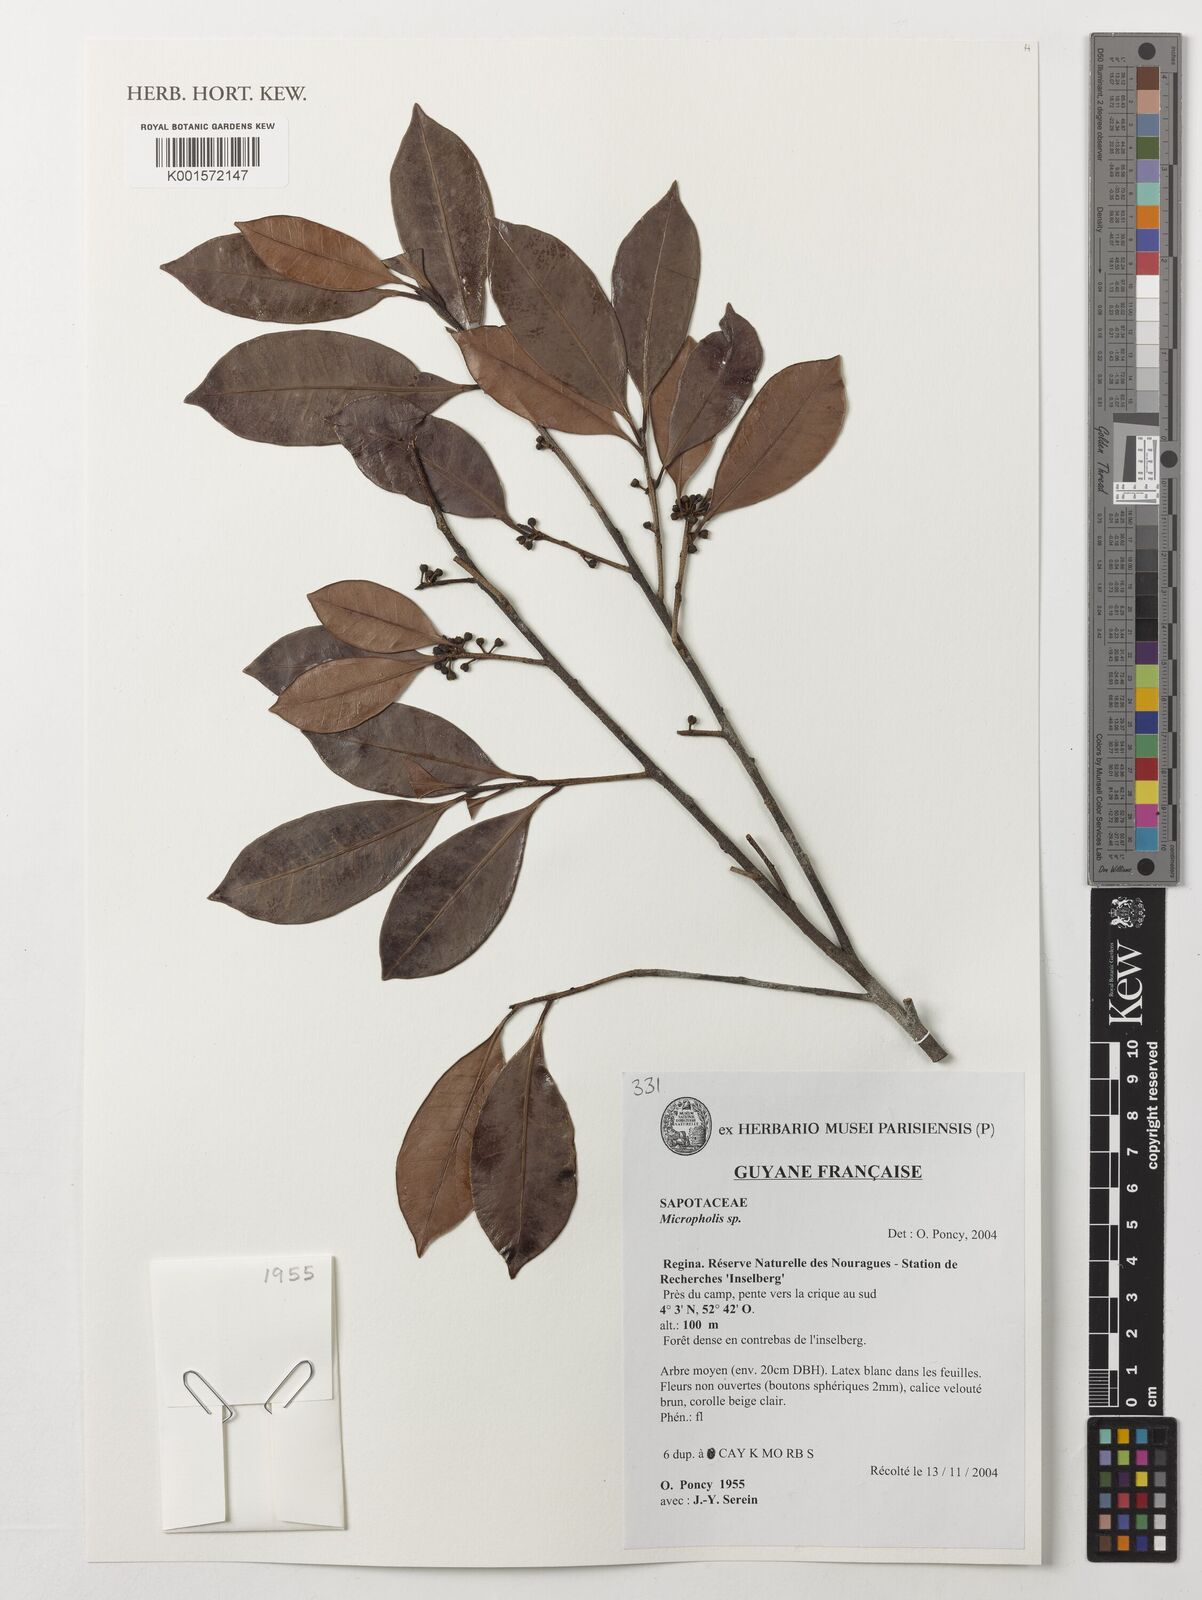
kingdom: Plantae
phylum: Tracheophyta
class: Magnoliopsida
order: Ericales
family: Sapotaceae
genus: Micropholis
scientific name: Micropholis
